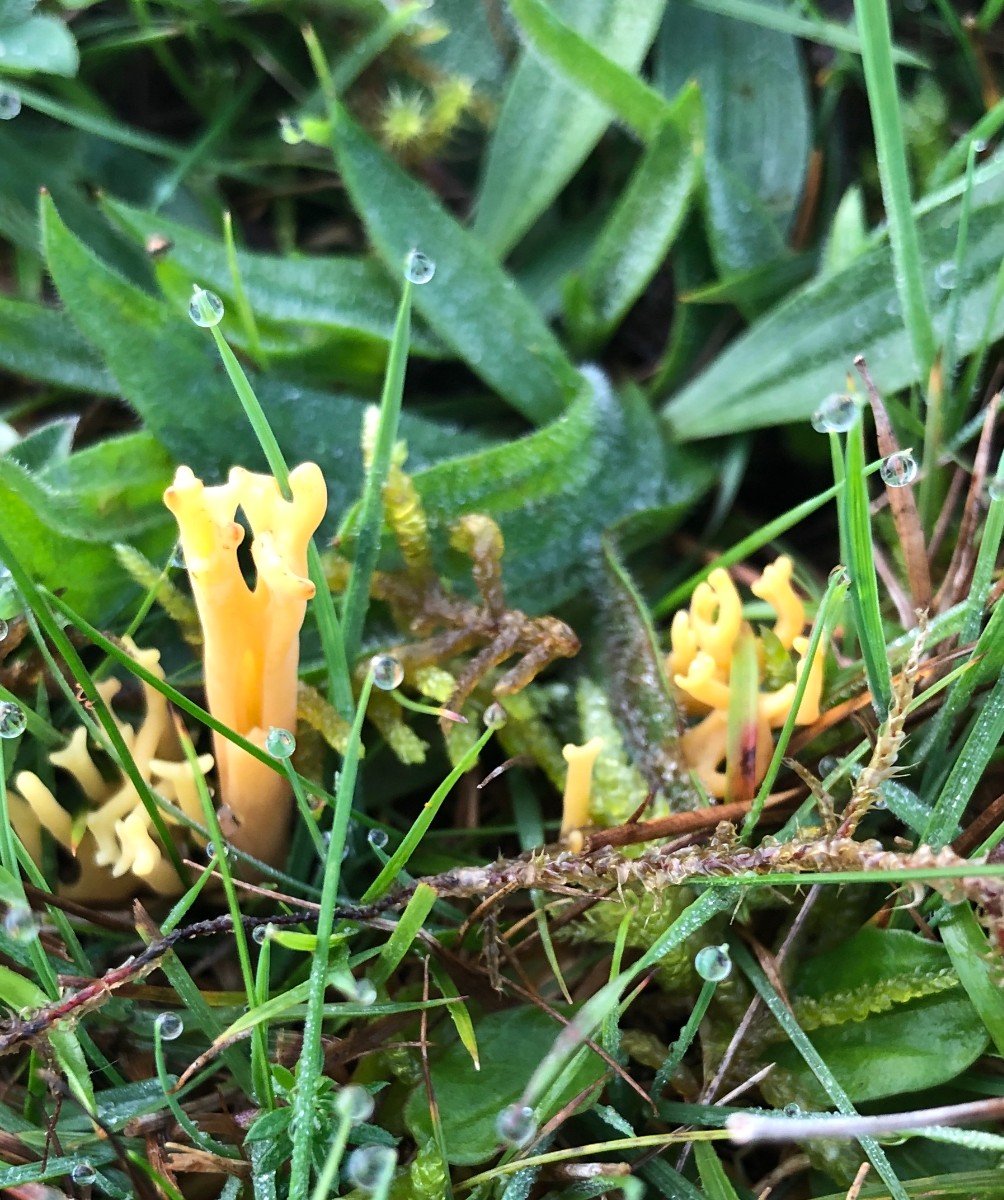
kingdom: Fungi
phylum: Basidiomycota
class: Agaricomycetes
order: Agaricales
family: Clavariaceae
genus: Clavulinopsis
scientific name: Clavulinopsis corniculata
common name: eng-køllesvamp
